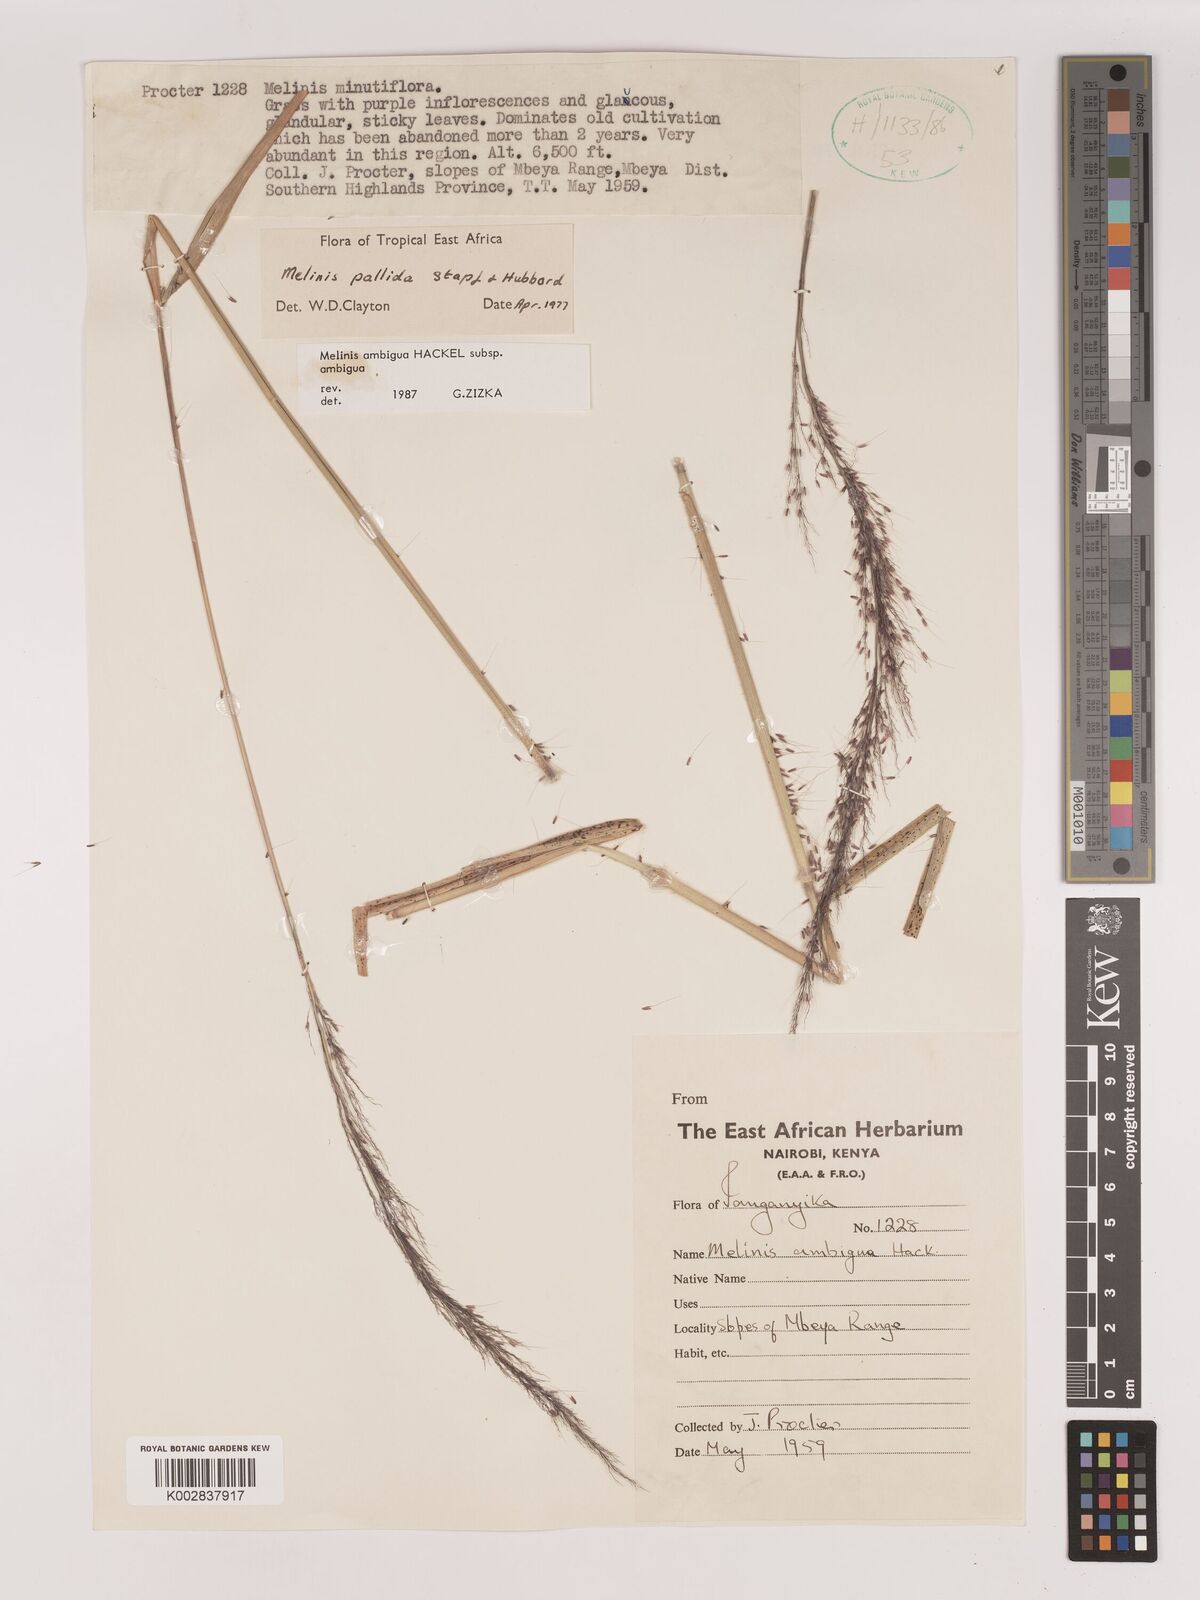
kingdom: Plantae
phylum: Tracheophyta
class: Liliopsida
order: Poales
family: Poaceae
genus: Melinis
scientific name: Melinis ambigua
